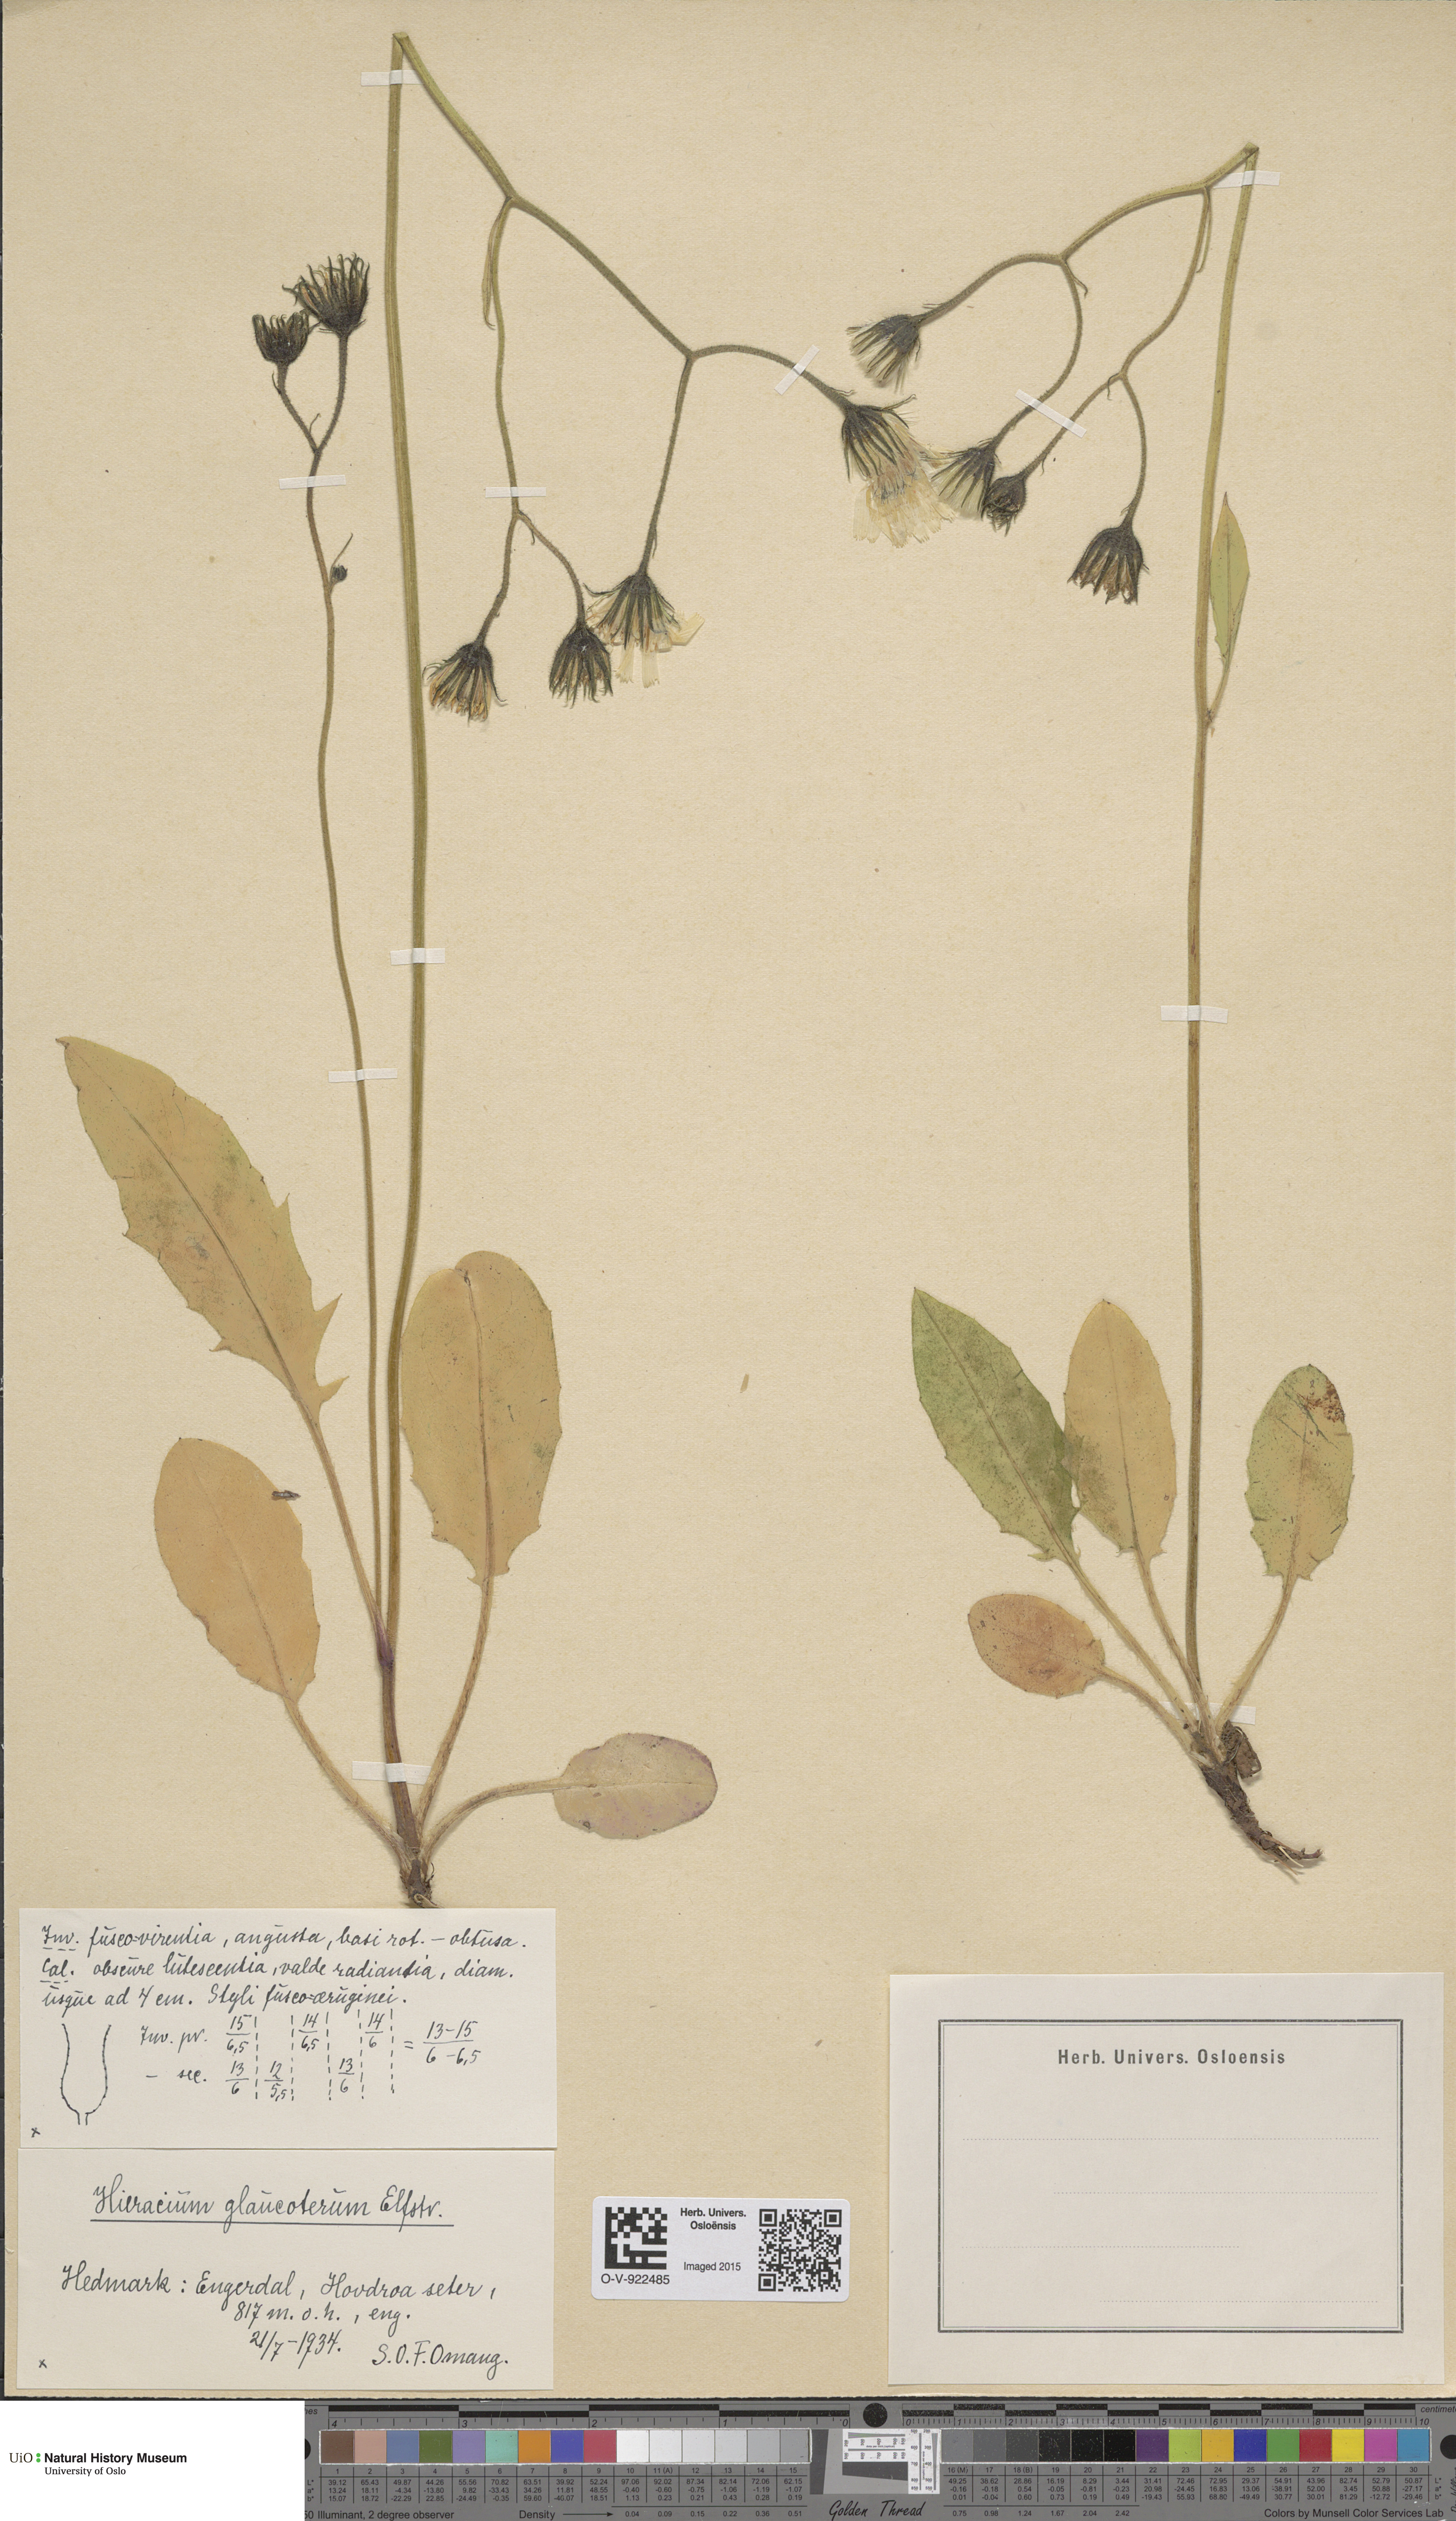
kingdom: Plantae
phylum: Tracheophyta
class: Magnoliopsida
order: Asterales
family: Asteraceae
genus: Hieracium
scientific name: Hieracium
